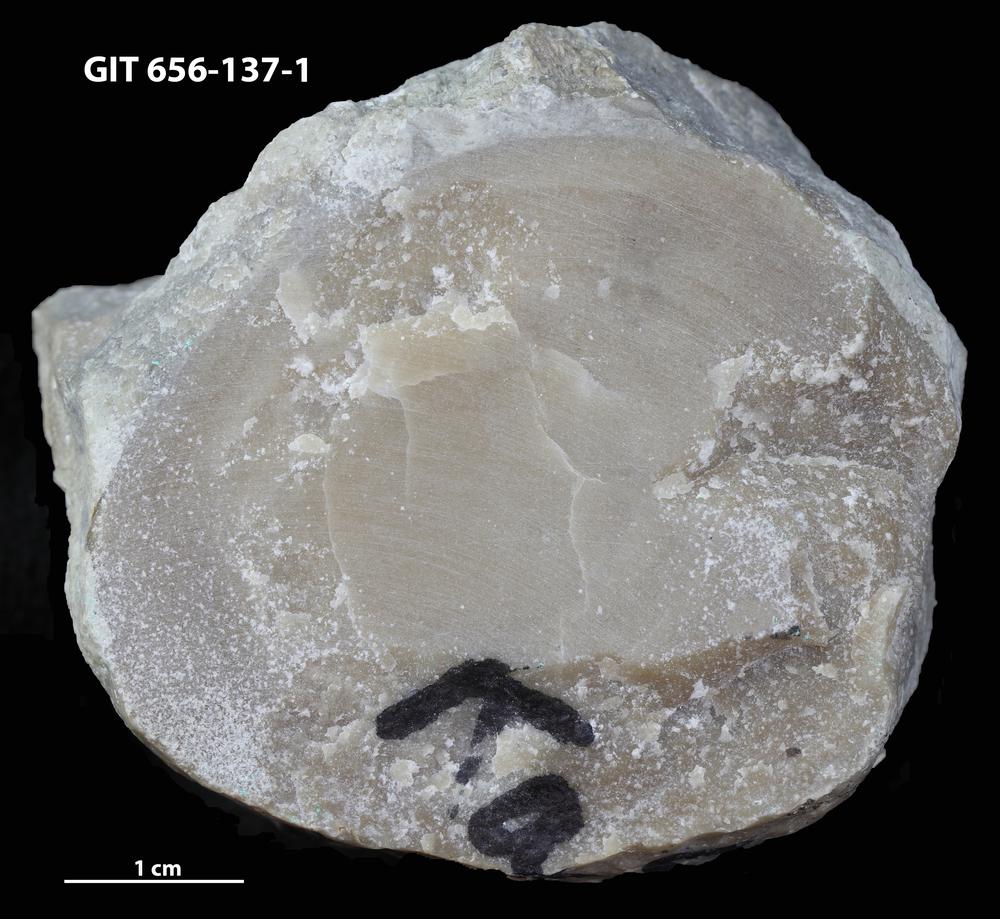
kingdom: Animalia
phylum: Porifera
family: Actinostromatidae
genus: Plectostroma
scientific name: Plectostroma
